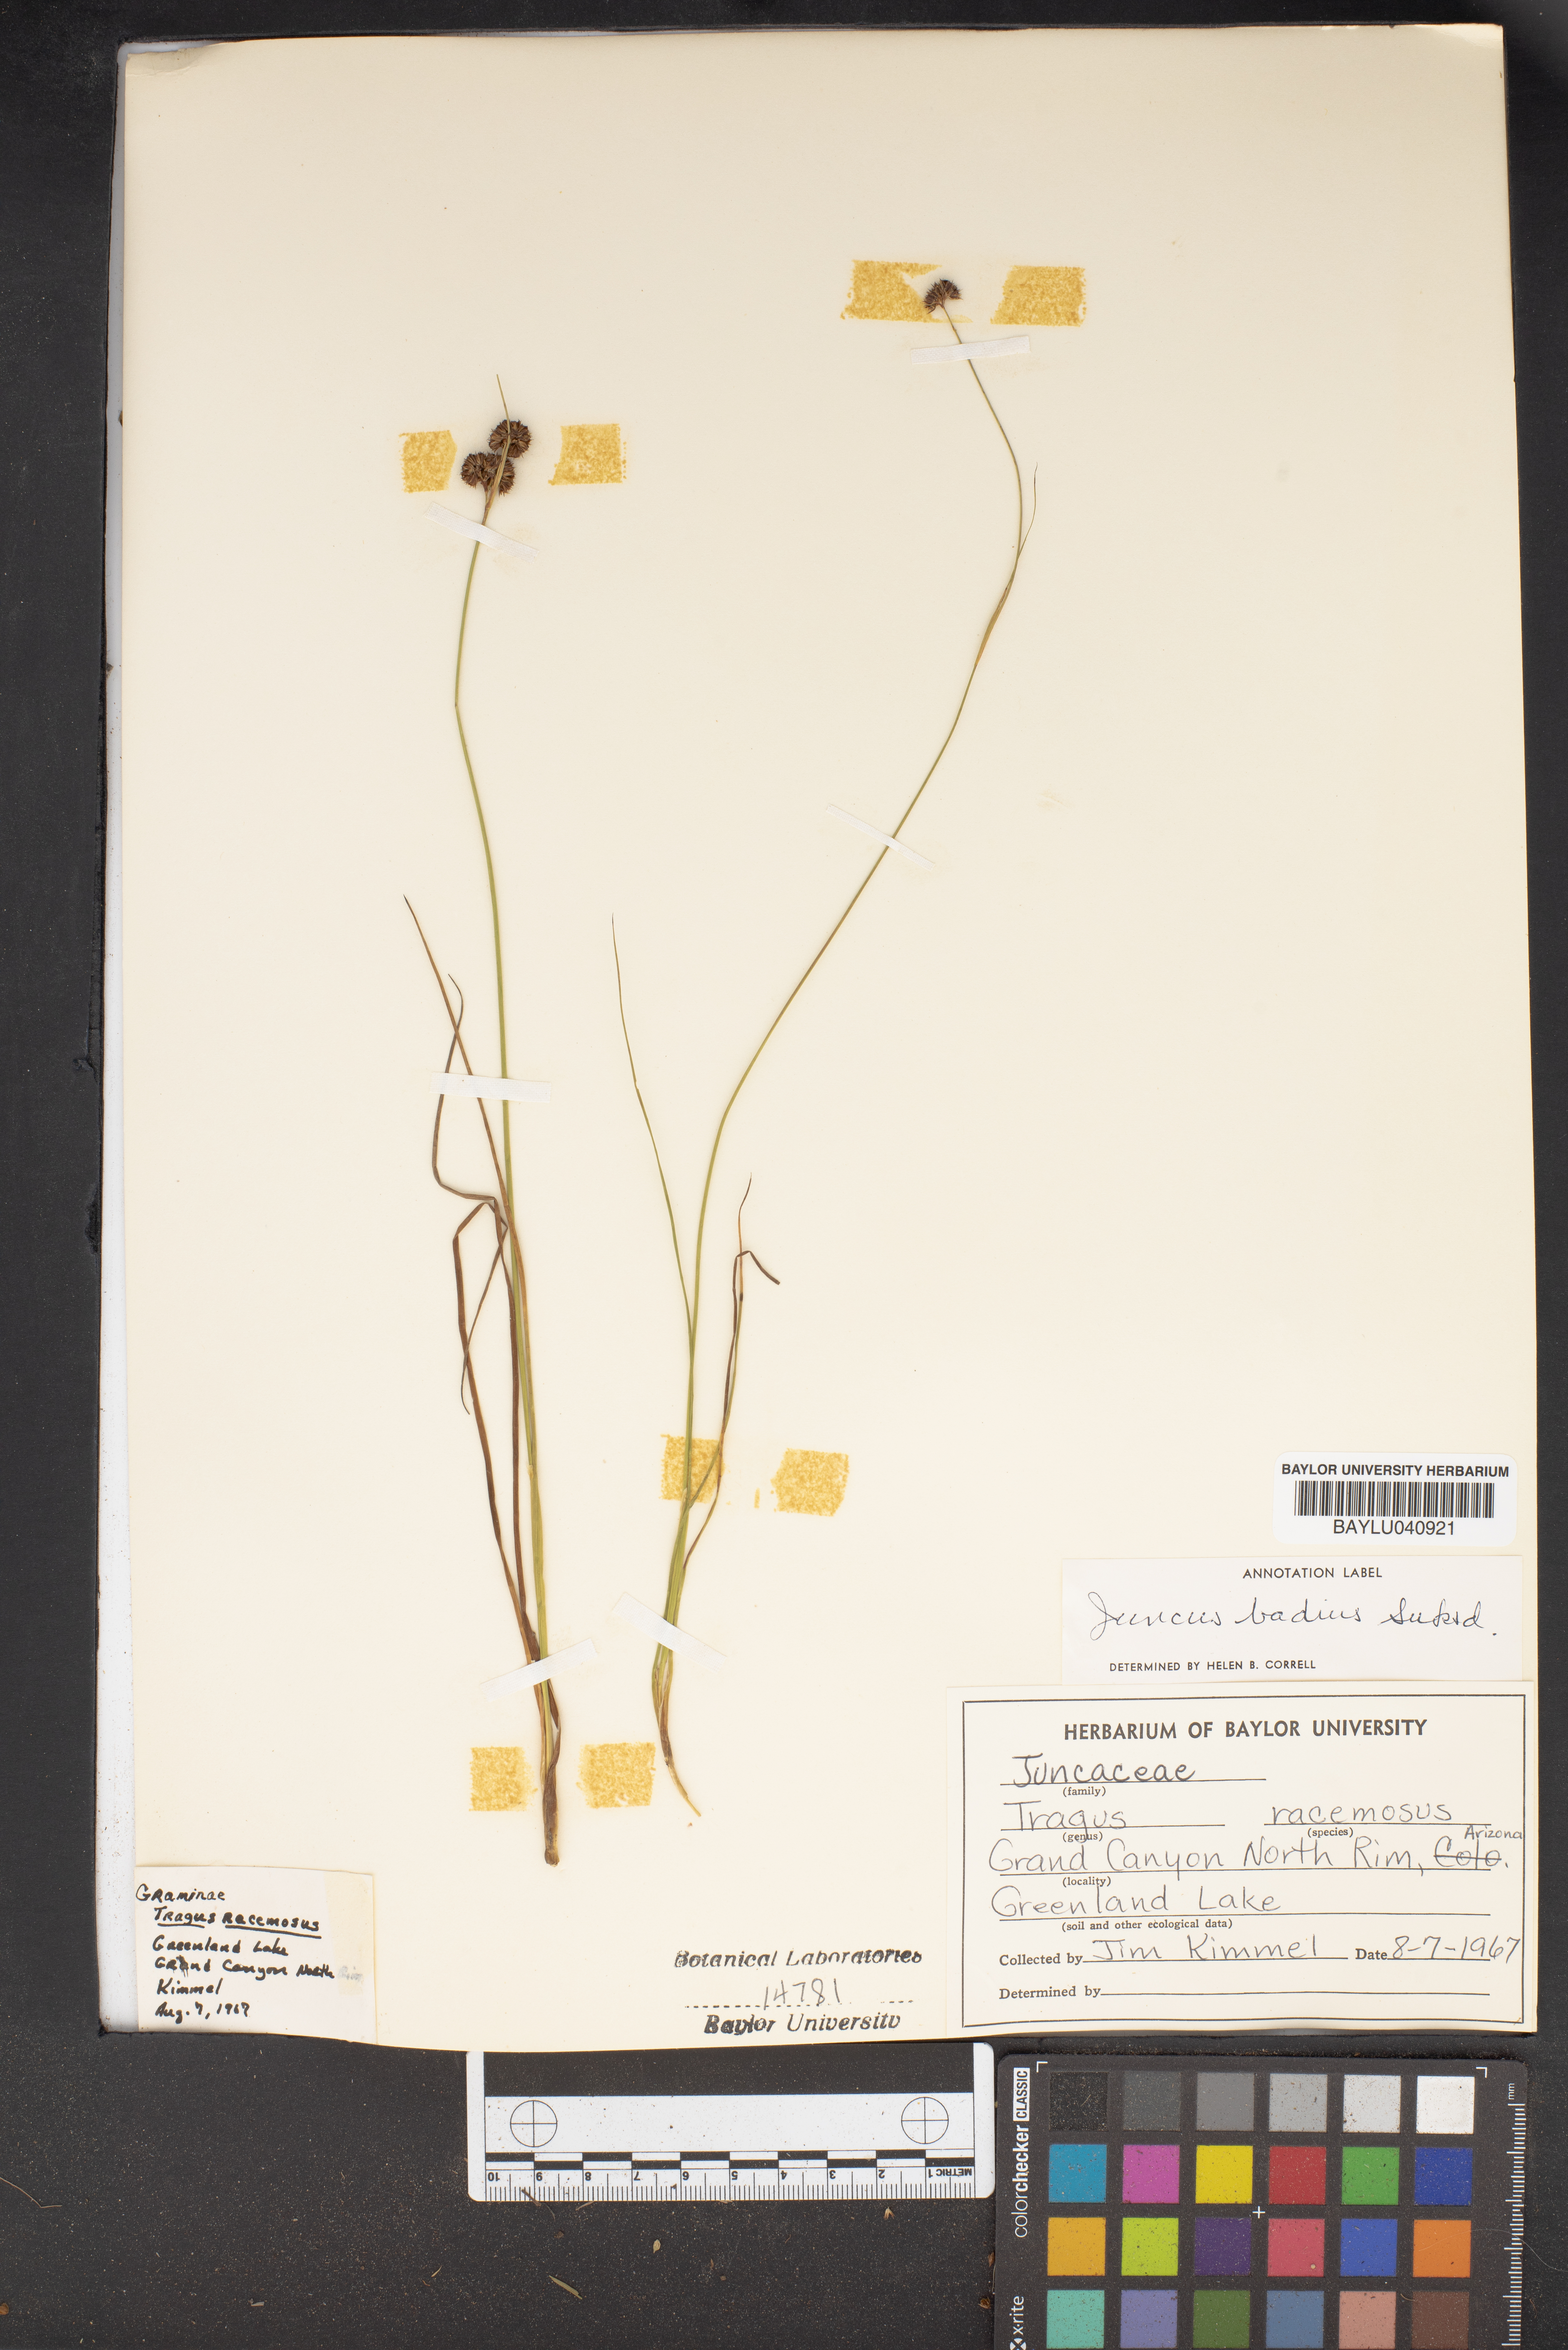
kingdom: Plantae
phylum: Tracheophyta
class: Liliopsida
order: Poales
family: Poaceae
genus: Tragus
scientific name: Tragus racemosus
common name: European bur-grass
